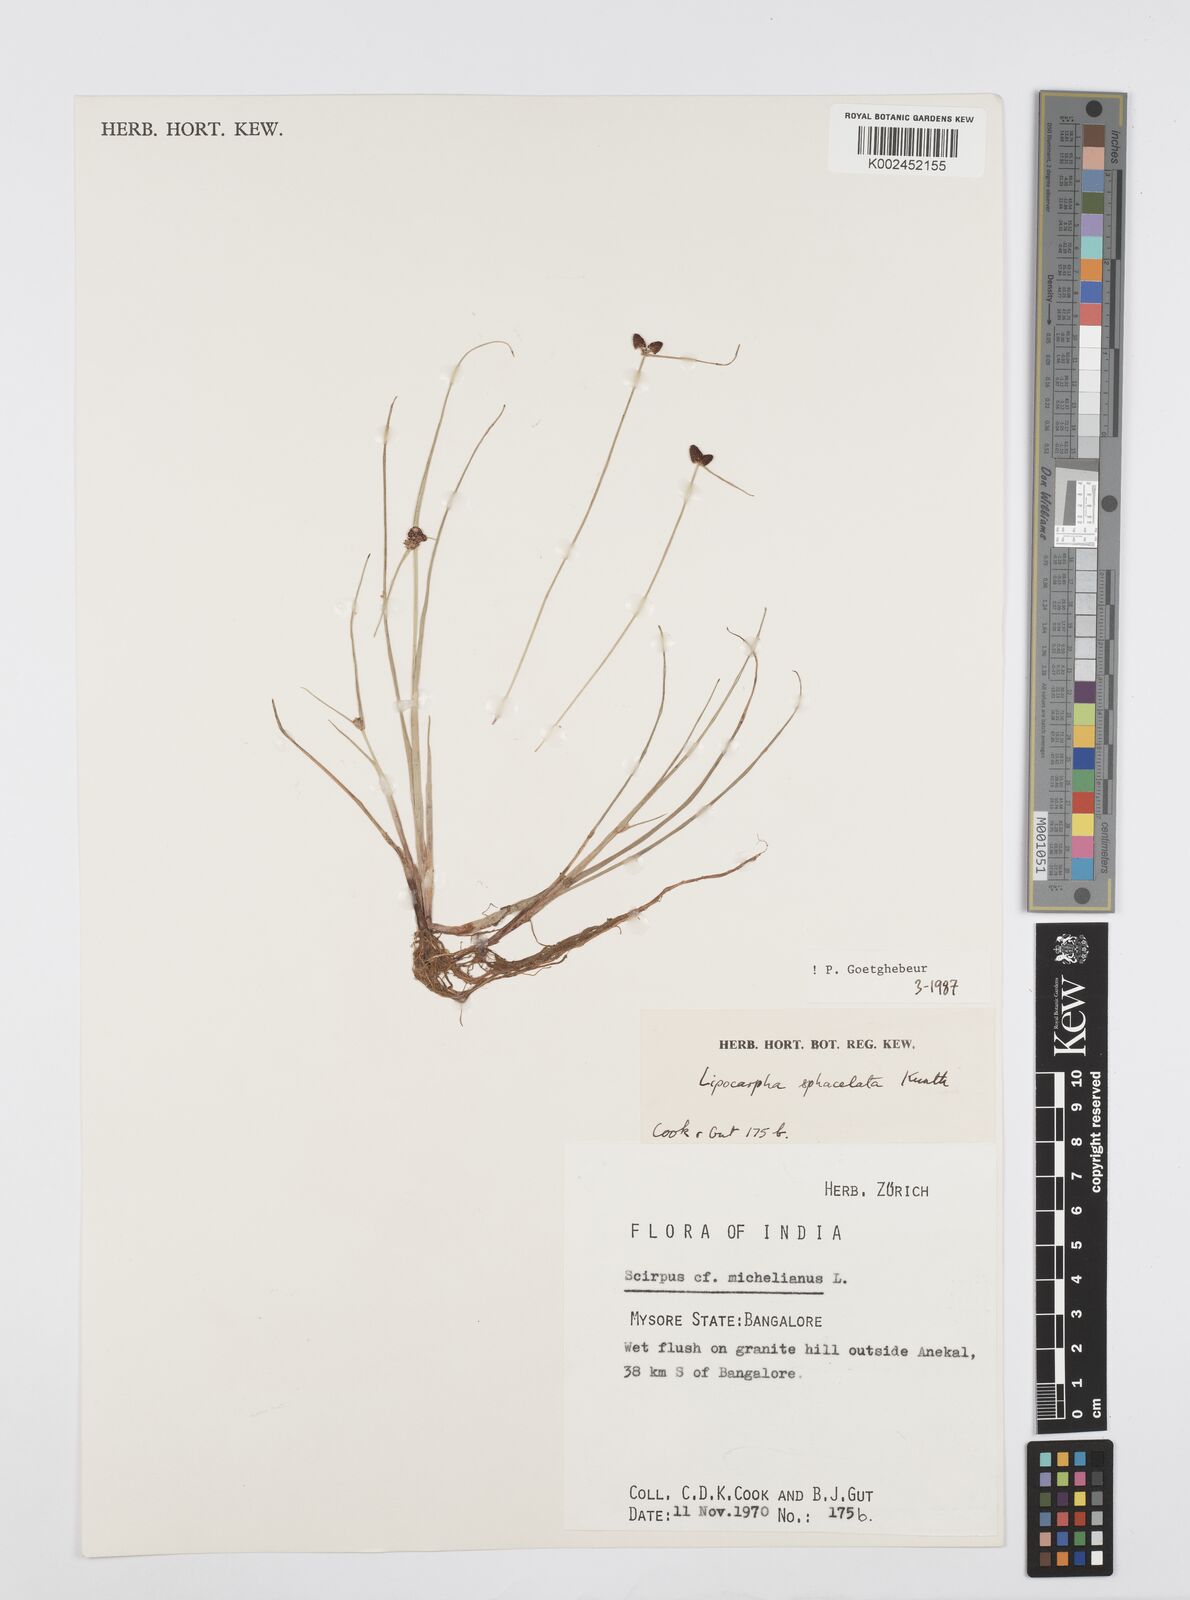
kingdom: Plantae
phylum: Tracheophyta
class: Liliopsida
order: Poales
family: Cyperaceae
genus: Cyperus
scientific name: Cyperus sphacelatus
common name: Roadside flatsedge
